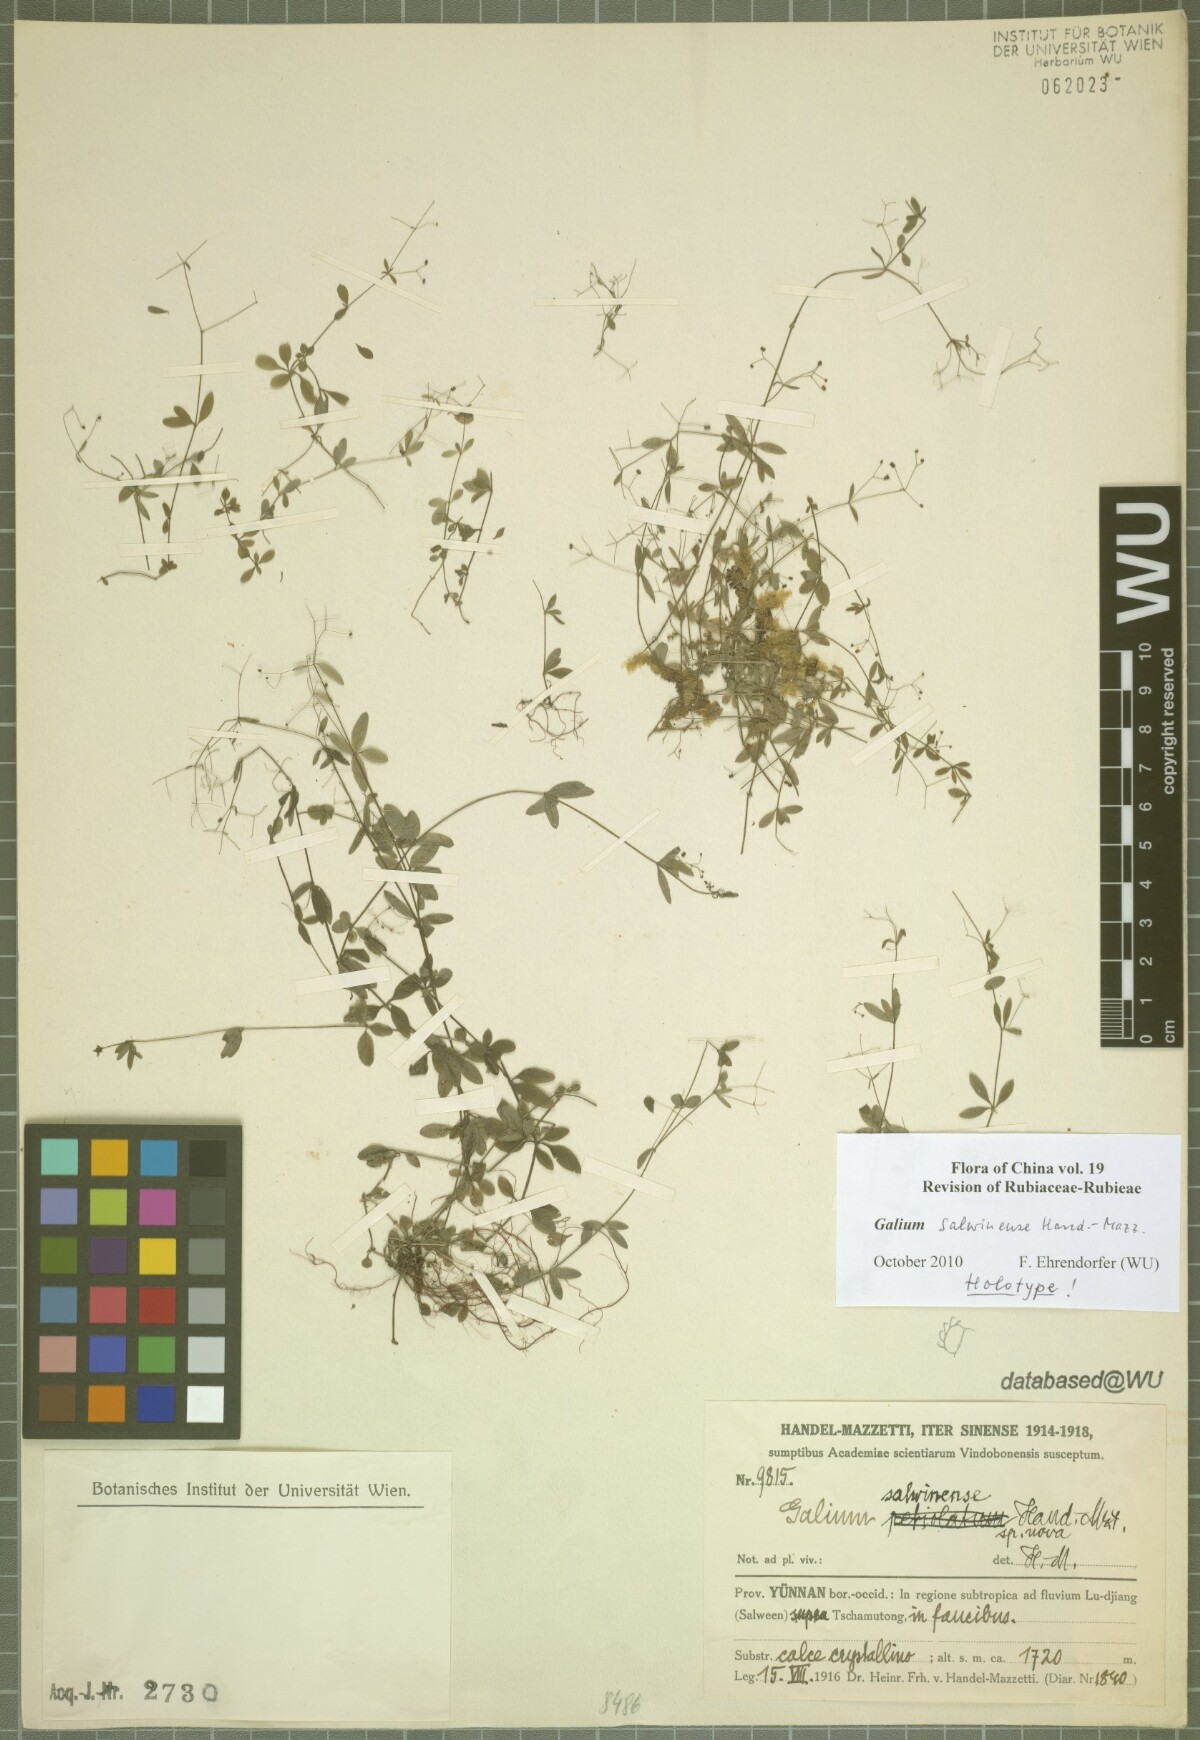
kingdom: Plantae
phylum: Tracheophyta
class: Magnoliopsida
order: Gentianales
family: Rubiaceae
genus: Galium
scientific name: Galium salwinense
